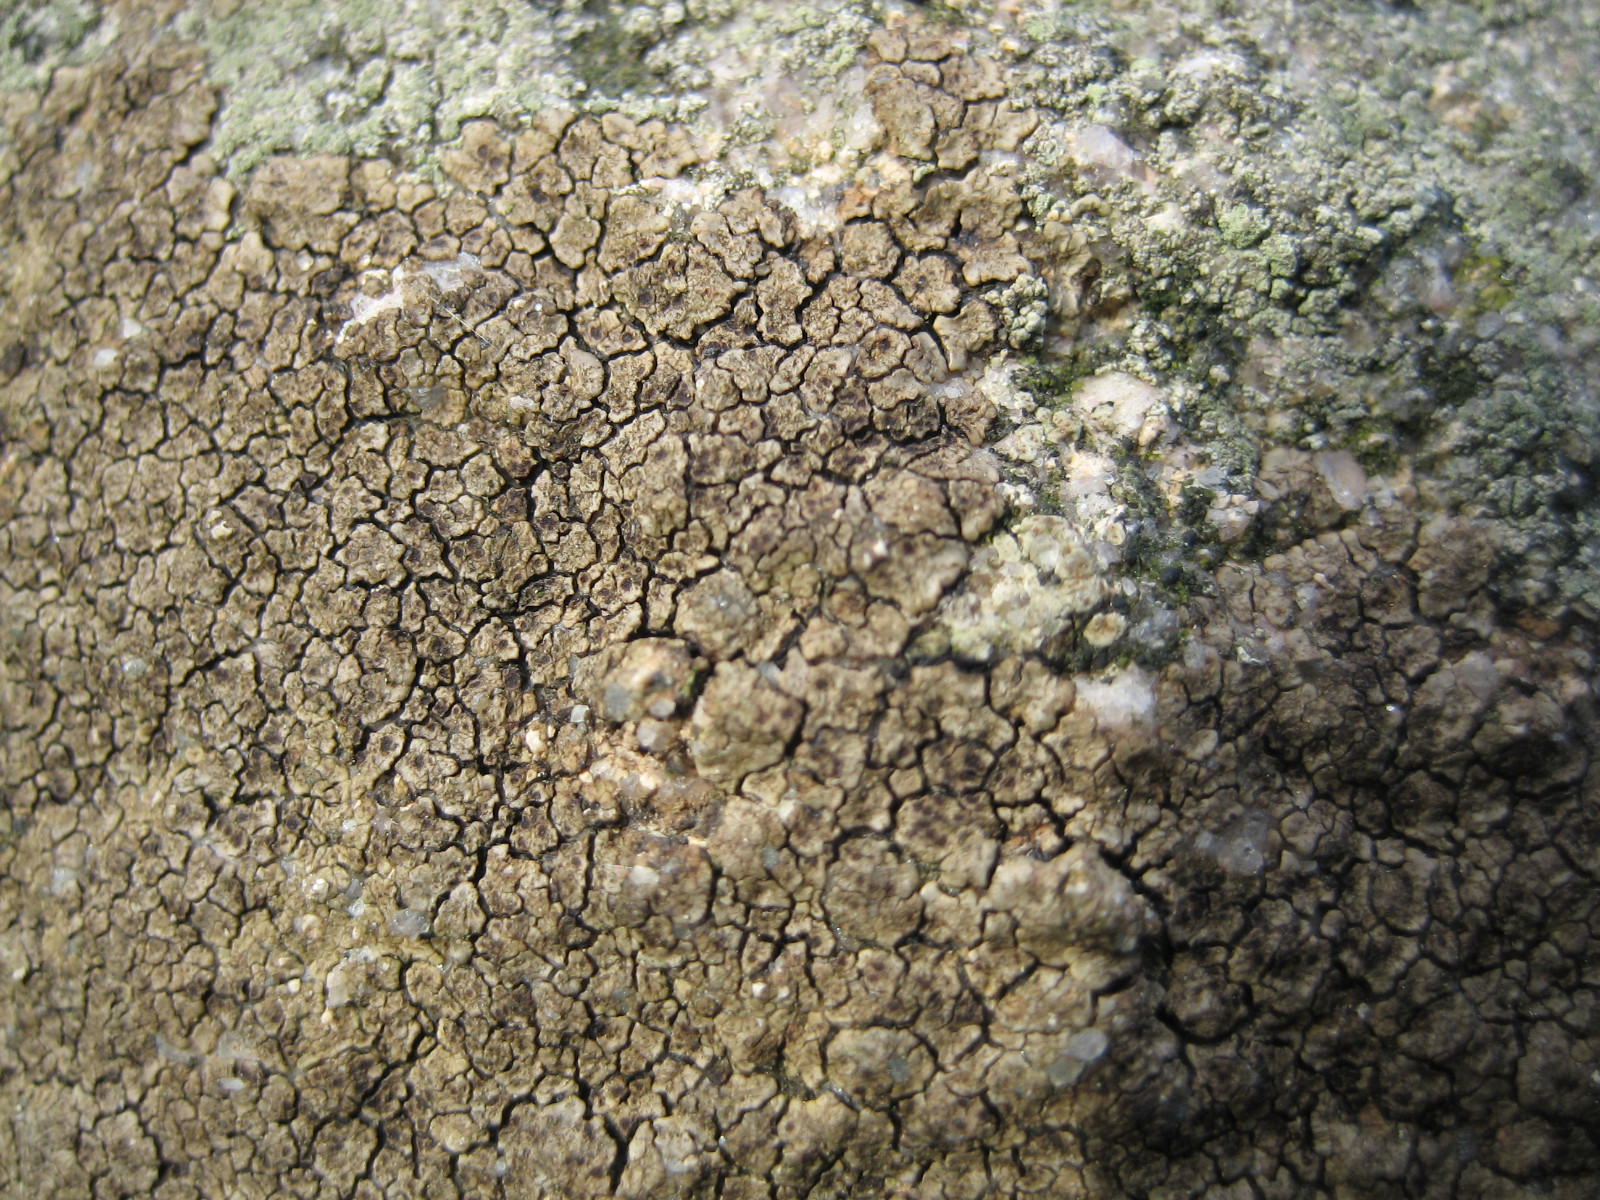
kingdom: Fungi
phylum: Ascomycota
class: Lecanoromycetes
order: Acarosporales
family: Acarosporaceae
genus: Acarospora
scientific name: Acarospora fuscata
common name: brun småsporelav
